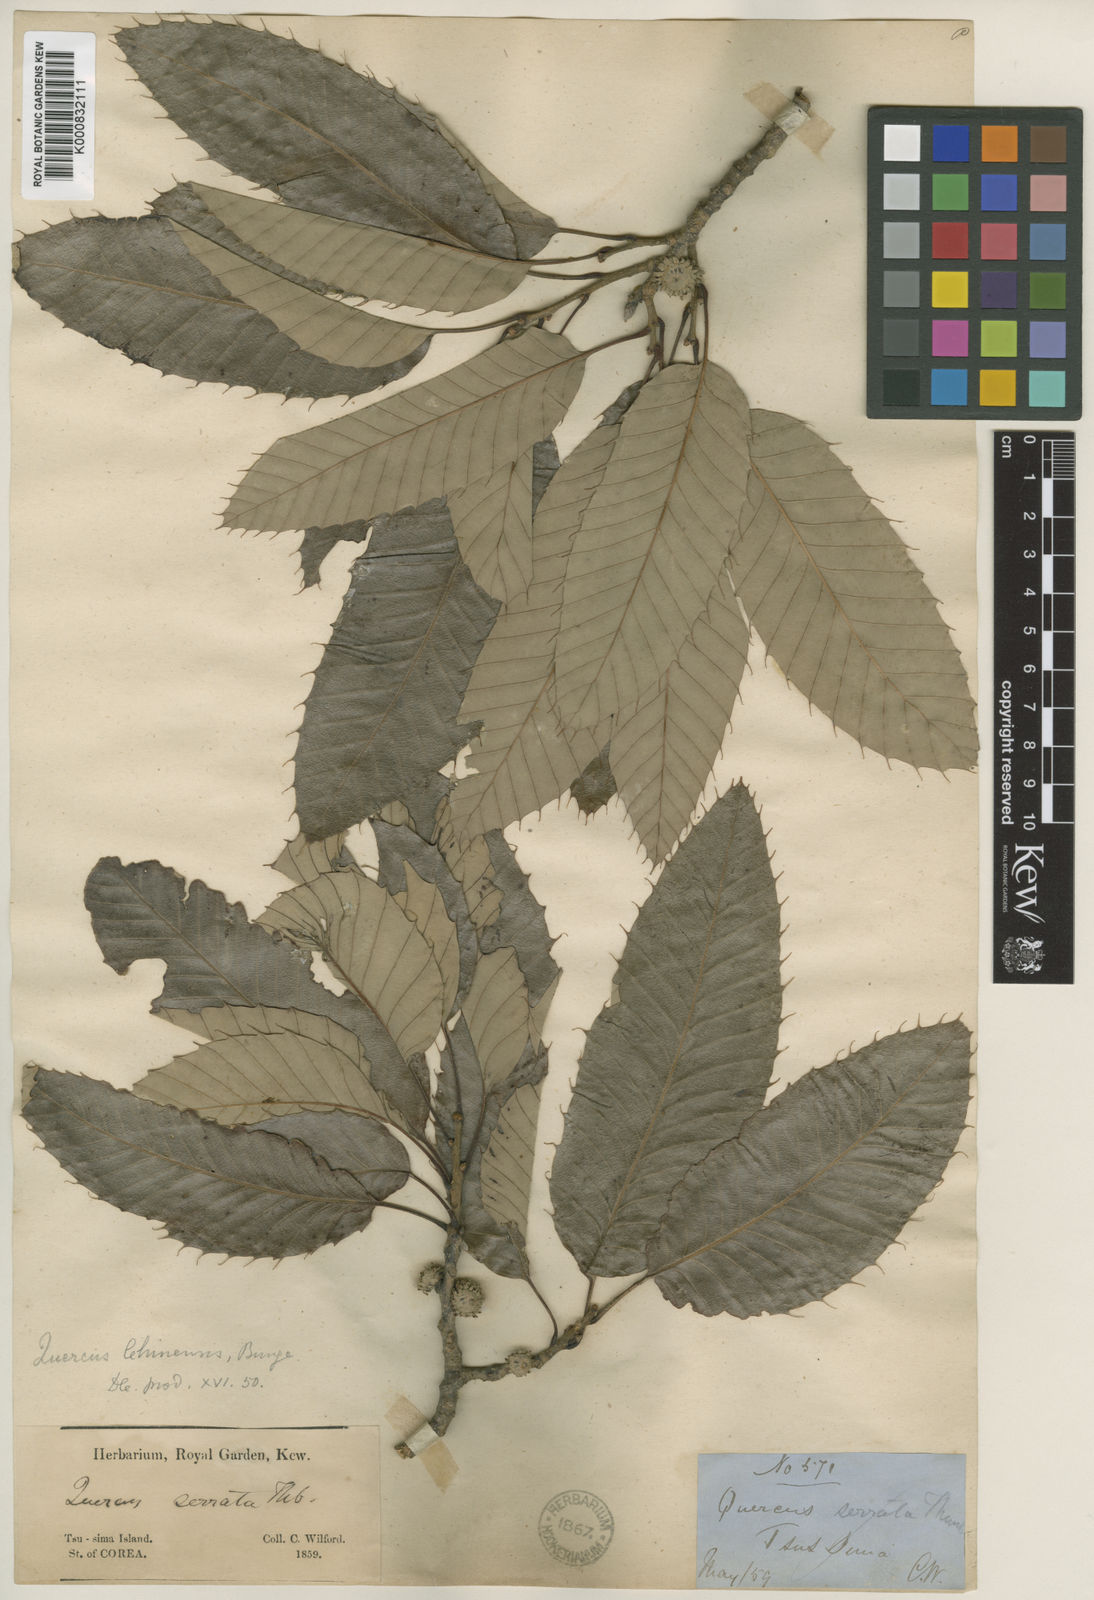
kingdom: Plantae
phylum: Tracheophyta
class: Magnoliopsida
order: Fagales
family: Fagaceae
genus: Quercus
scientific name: Quercus variabilis
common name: Chinese cork oak
